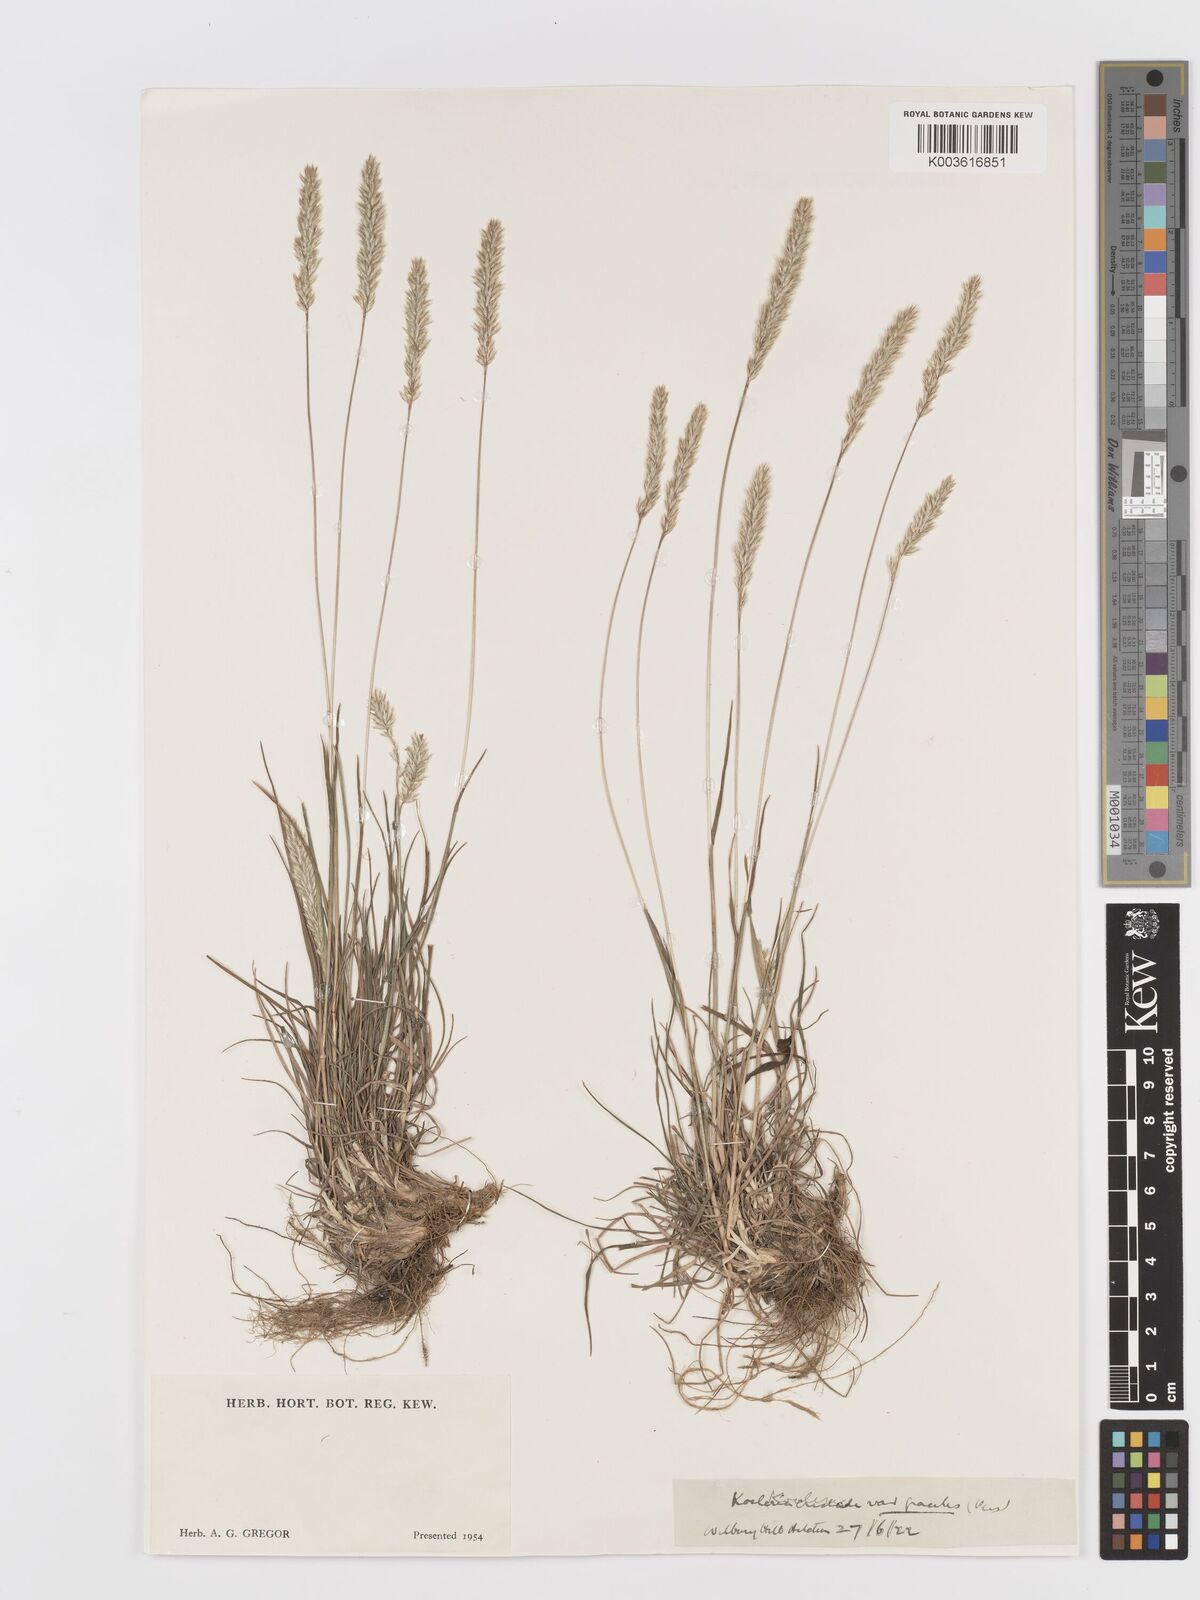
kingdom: Plantae
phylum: Tracheophyta
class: Liliopsida
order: Poales
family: Poaceae
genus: Koeleria
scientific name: Koeleria macrantha
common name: Crested hair-grass
